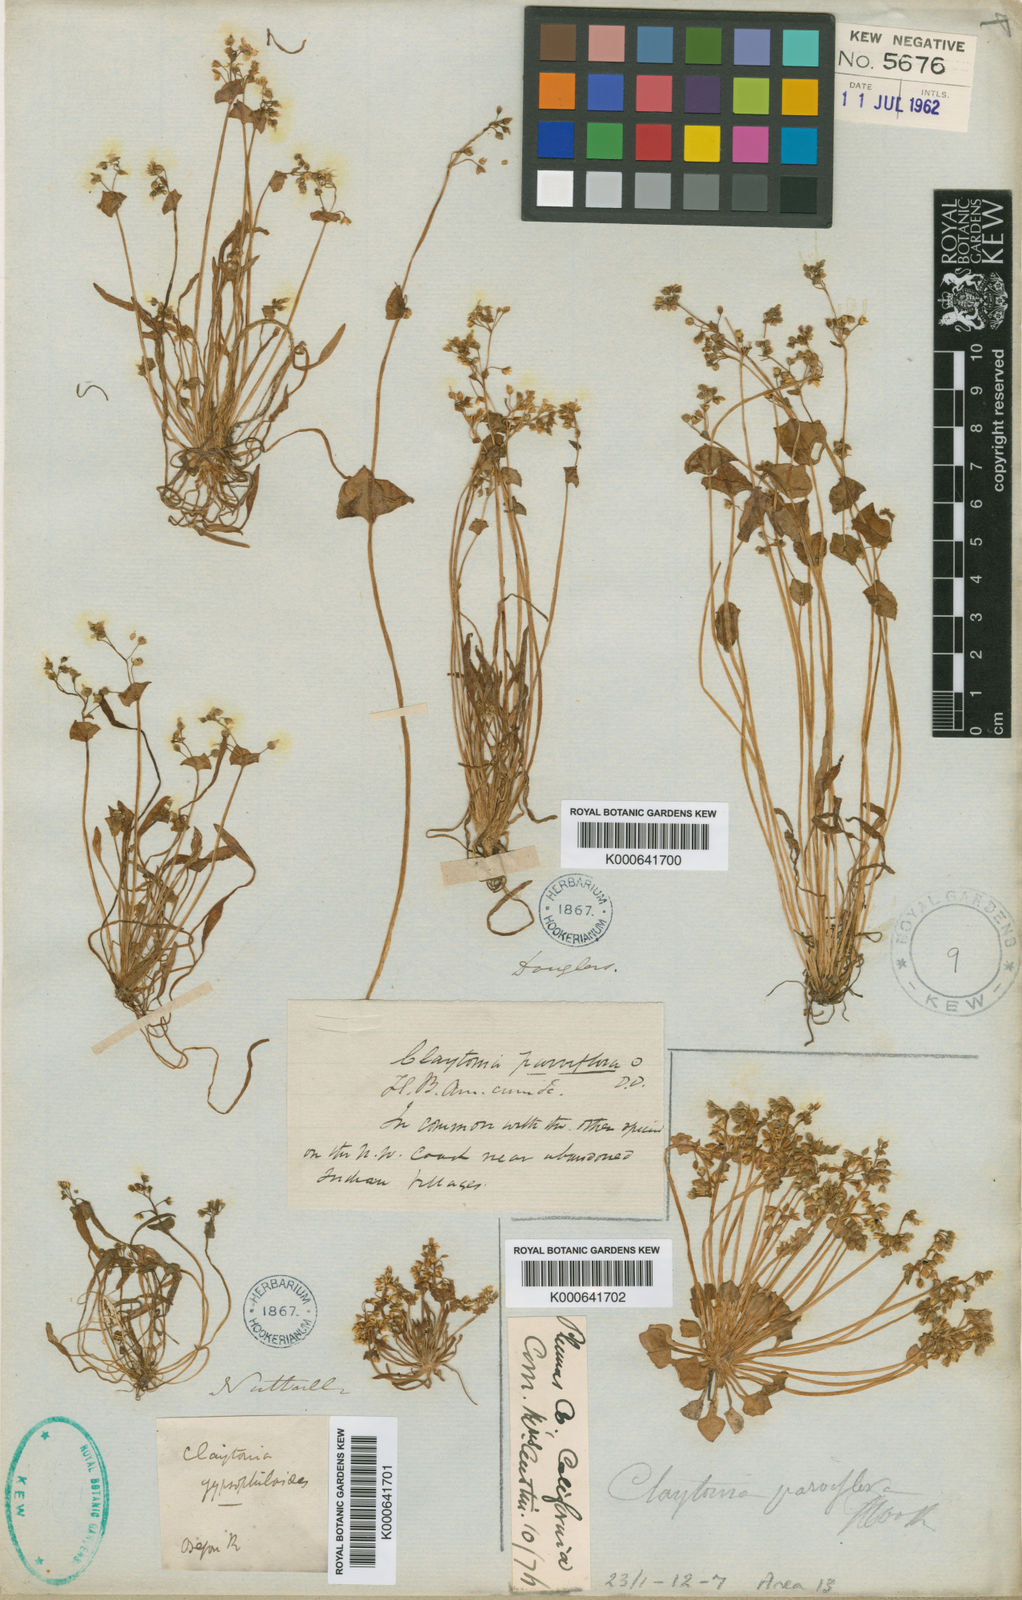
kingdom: Plantae
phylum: Tracheophyta
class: Magnoliopsida
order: Caryophyllales
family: Montiaceae
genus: Claytonia
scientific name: Claytonia parviflora
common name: Indian-lettuce
